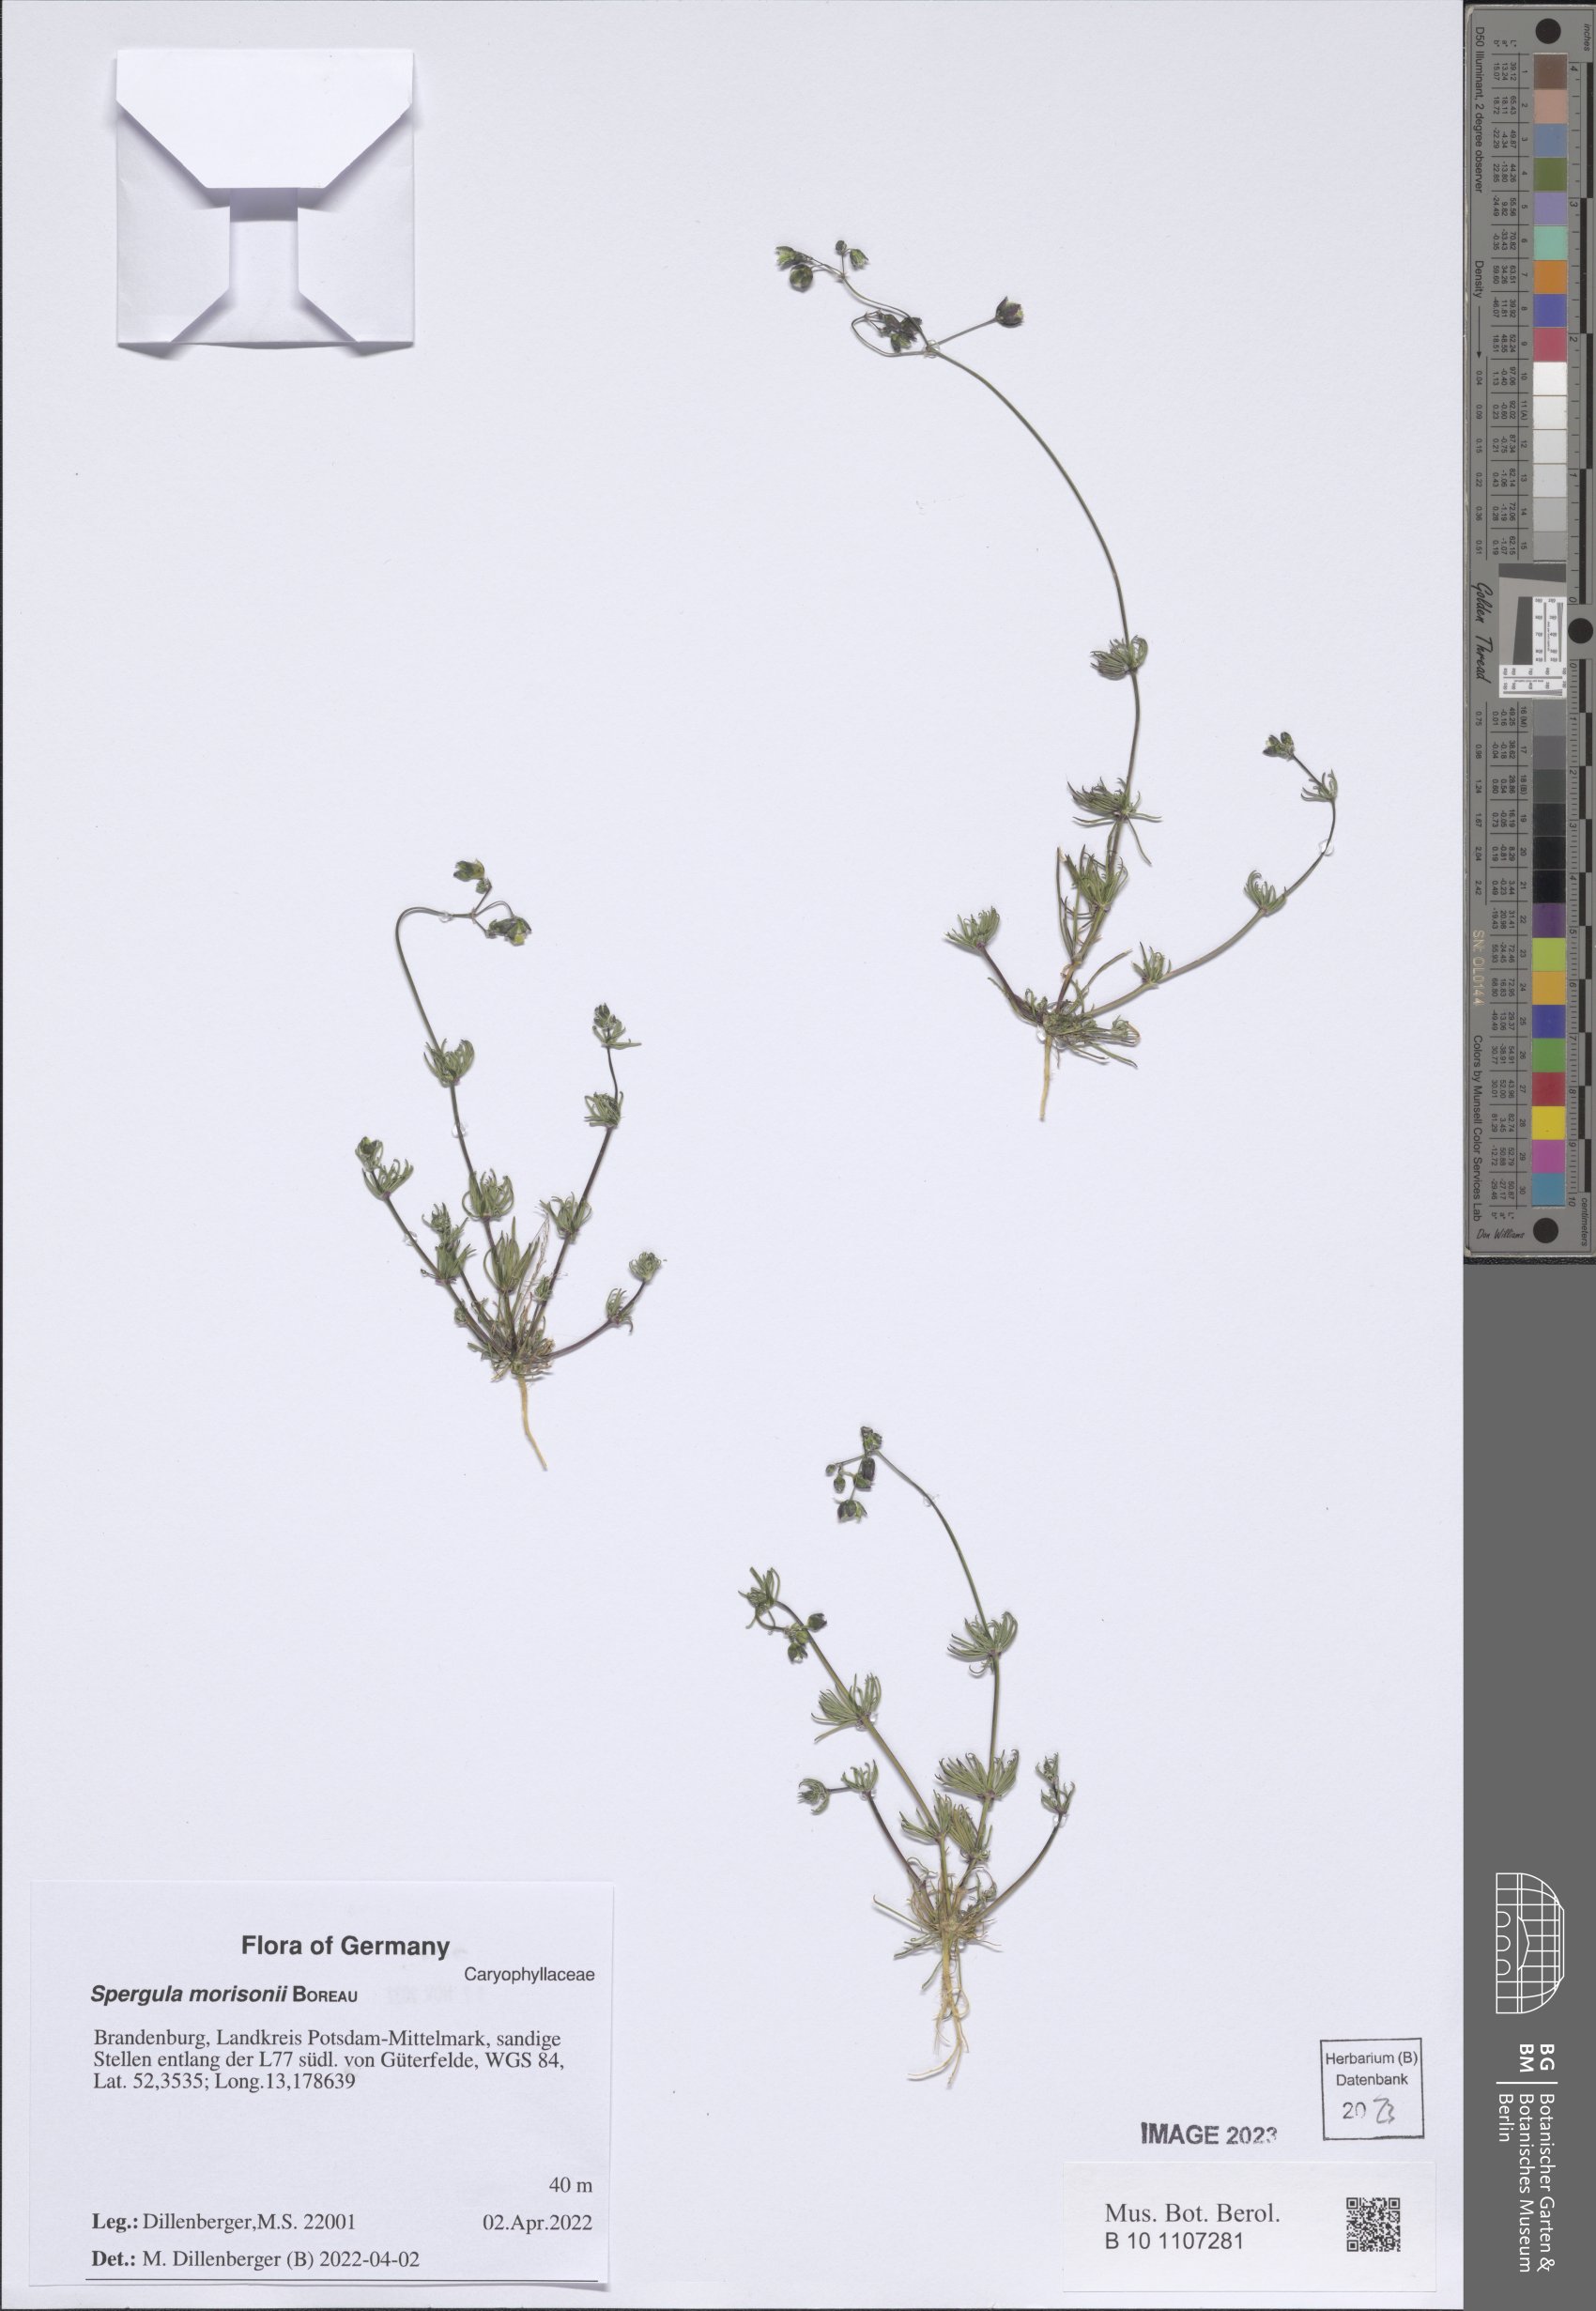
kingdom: Plantae
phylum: Tracheophyta
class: Magnoliopsida
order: Caryophyllales
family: Caryophyllaceae
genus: Spergula
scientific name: Spergula morisonii
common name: Pearlwort spurrey
